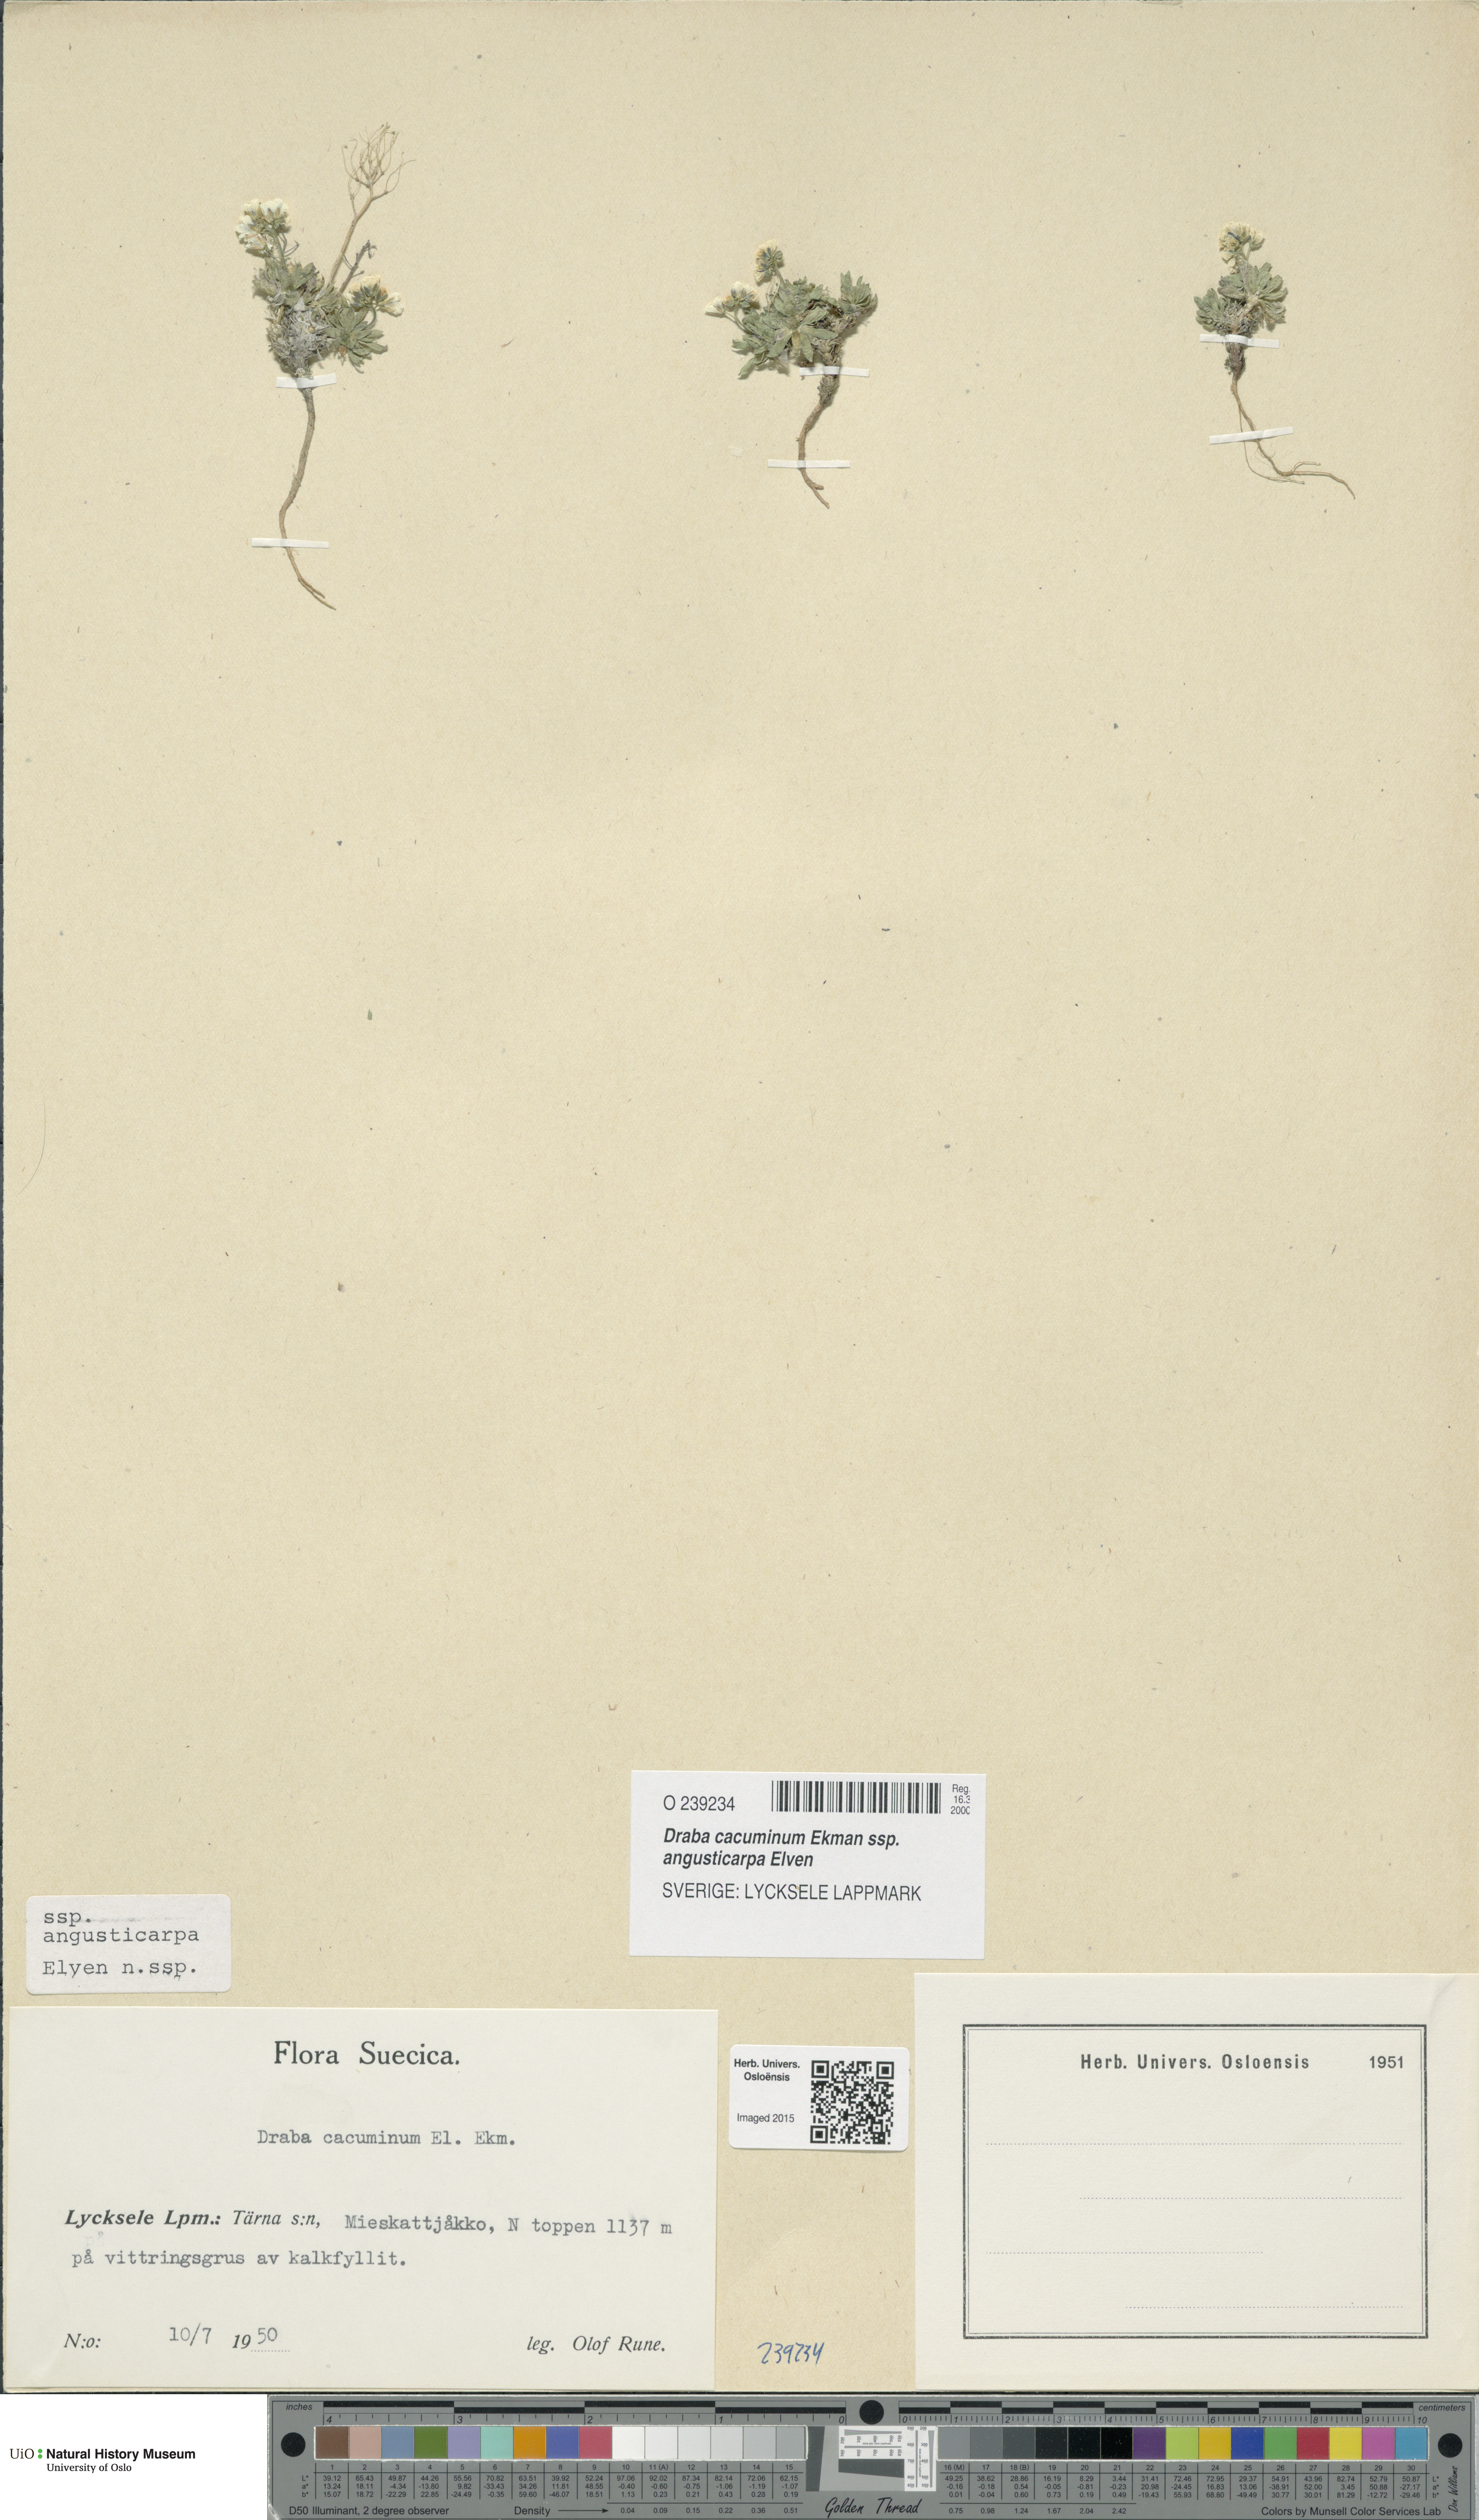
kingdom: Plantae
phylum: Tracheophyta
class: Magnoliopsida
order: Brassicales
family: Brassicaceae
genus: Draba
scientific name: Draba cacuminum
